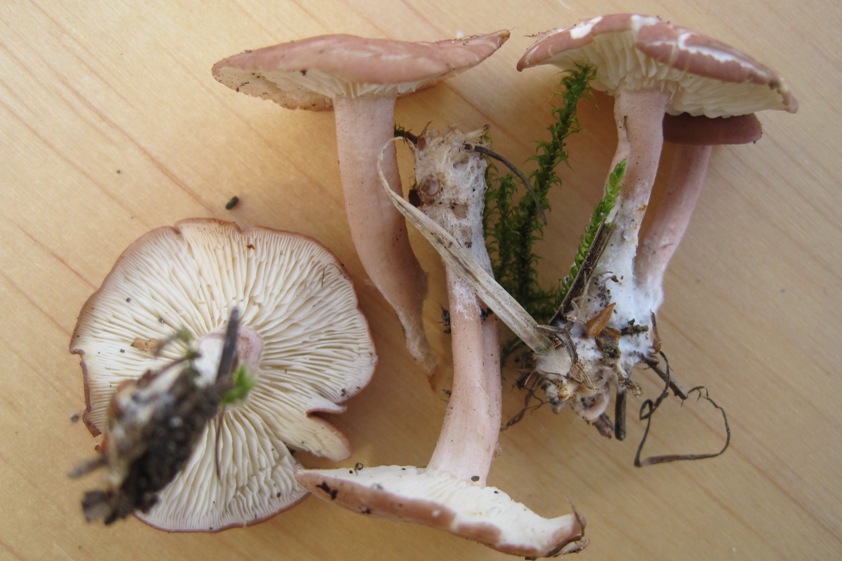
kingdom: Fungi
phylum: Basidiomycota
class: Agaricomycetes
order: Agaricales
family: Lyophyllaceae
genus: Calocybe
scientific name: Calocybe carnea
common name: rosa fagerhat
